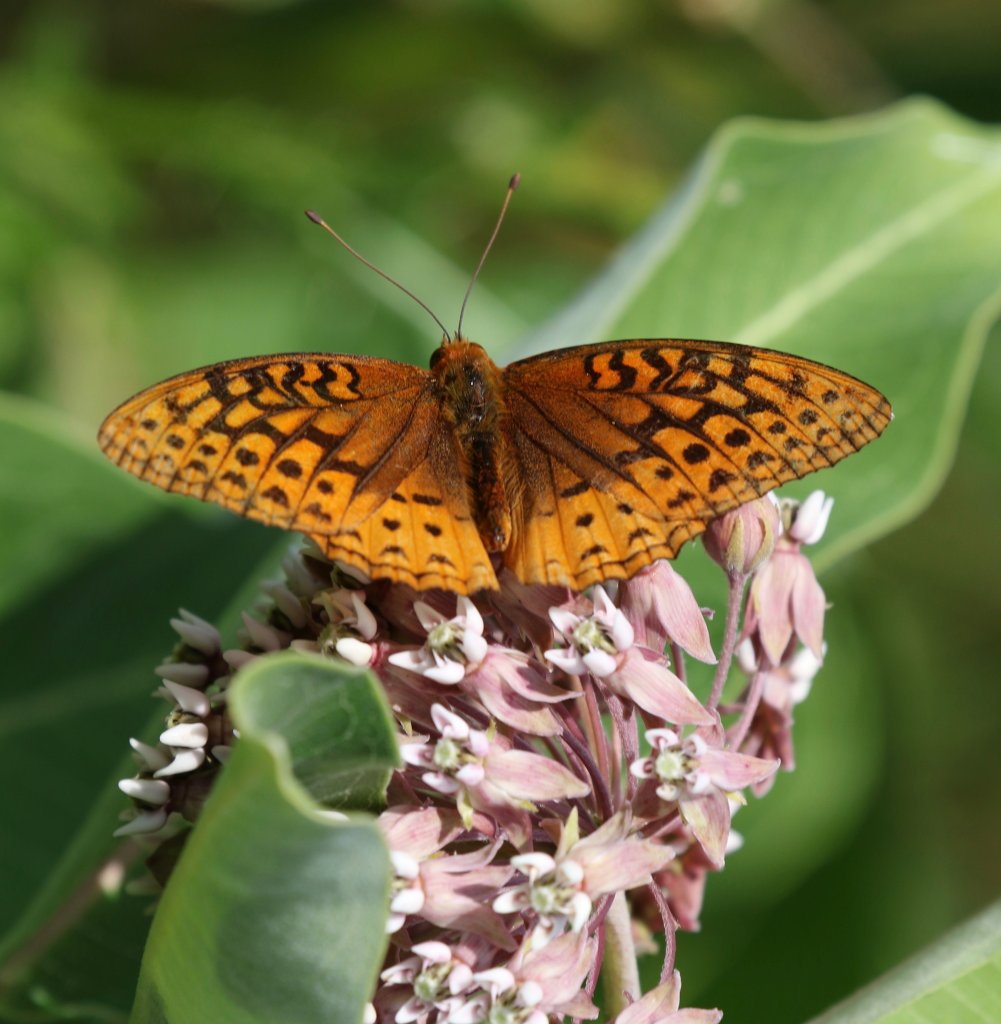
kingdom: Animalia
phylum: Arthropoda
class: Insecta
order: Lepidoptera
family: Nymphalidae
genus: Speyeria
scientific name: Speyeria cybele
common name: Great Spangled Fritillary
